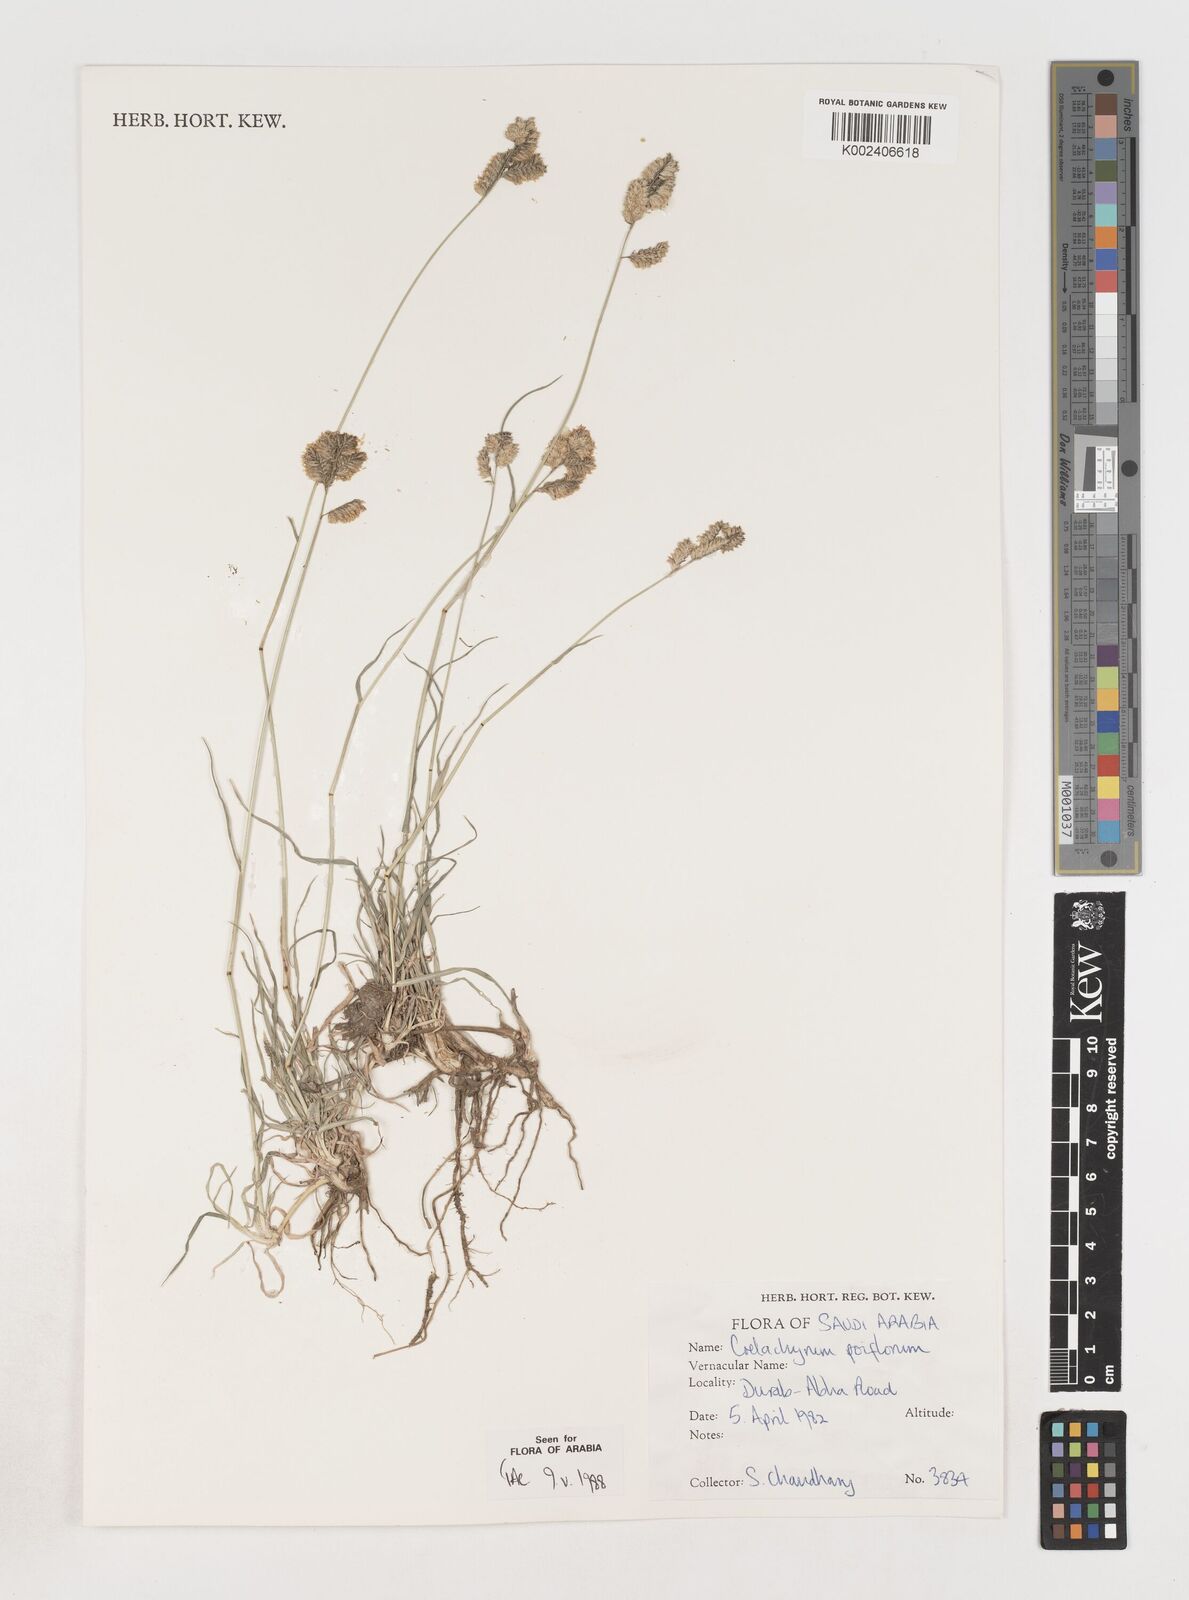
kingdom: Plantae
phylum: Tracheophyta
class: Liliopsida
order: Poales
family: Poaceae
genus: Coelachyrum
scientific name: Coelachyrum poiflorum
